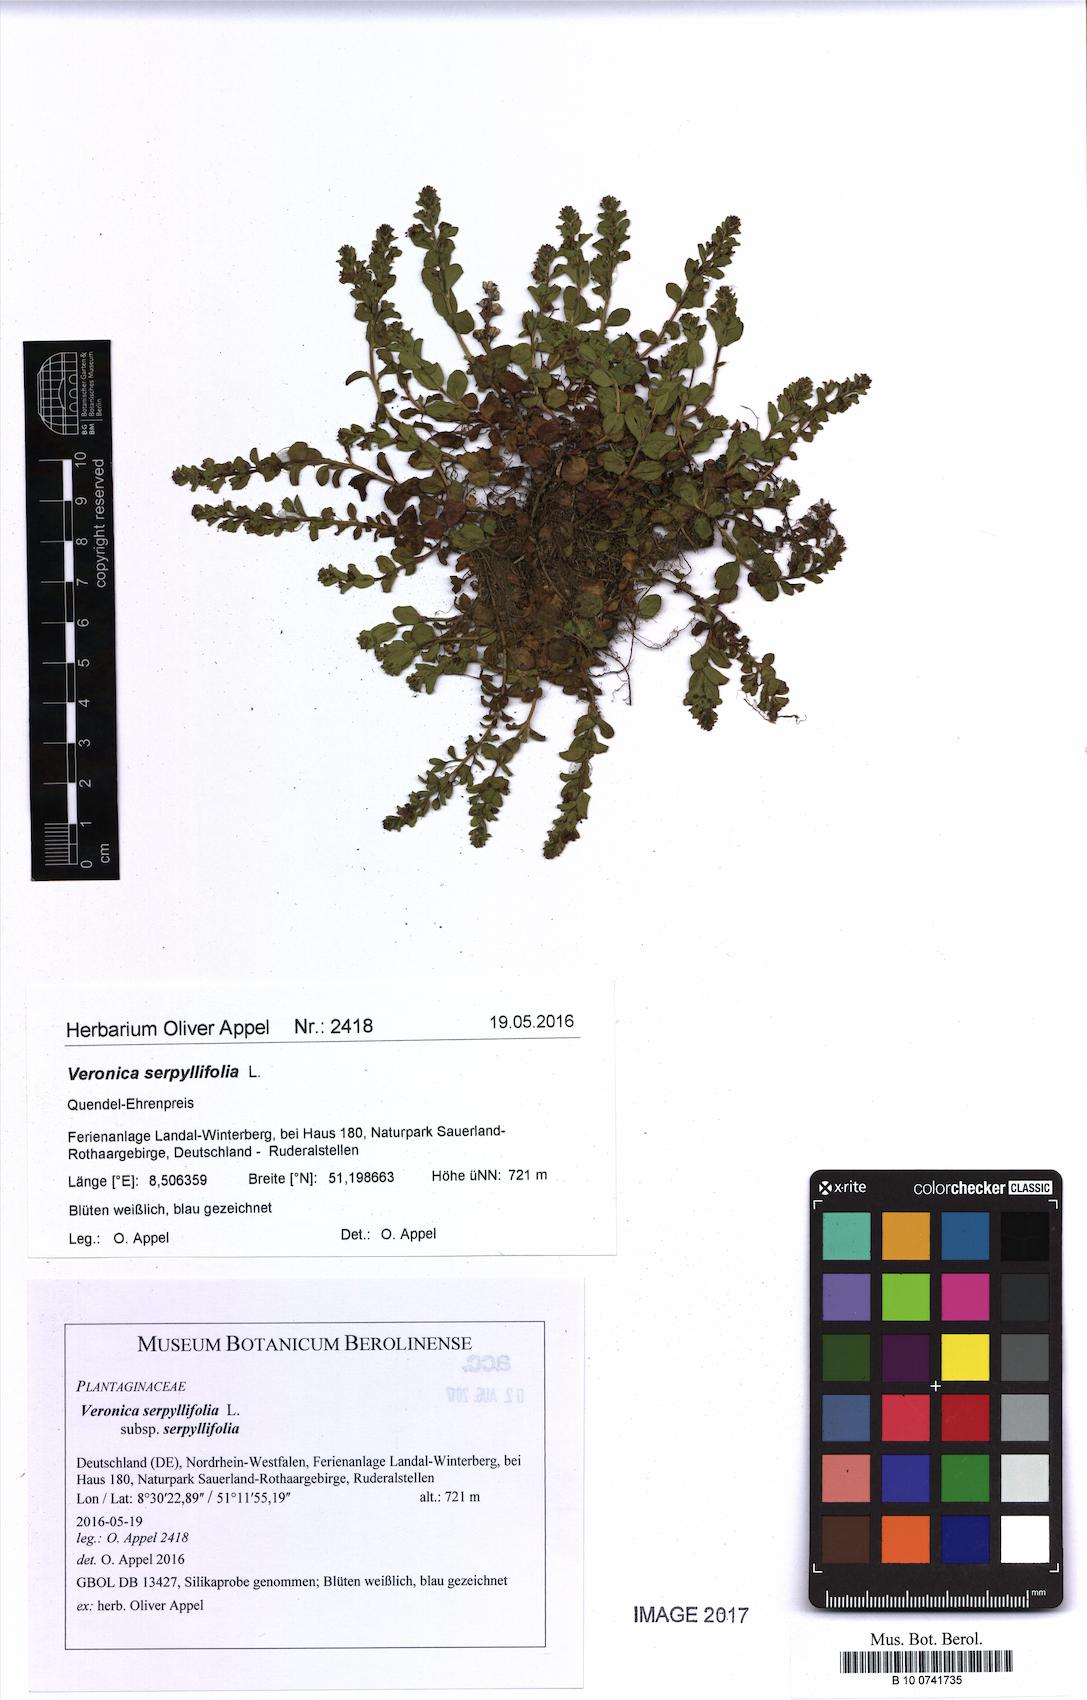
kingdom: Plantae
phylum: Tracheophyta
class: Magnoliopsida
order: Lamiales
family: Plantaginaceae
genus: Veronica
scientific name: Veronica serpyllifolia
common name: Thyme-leaved speedwell
